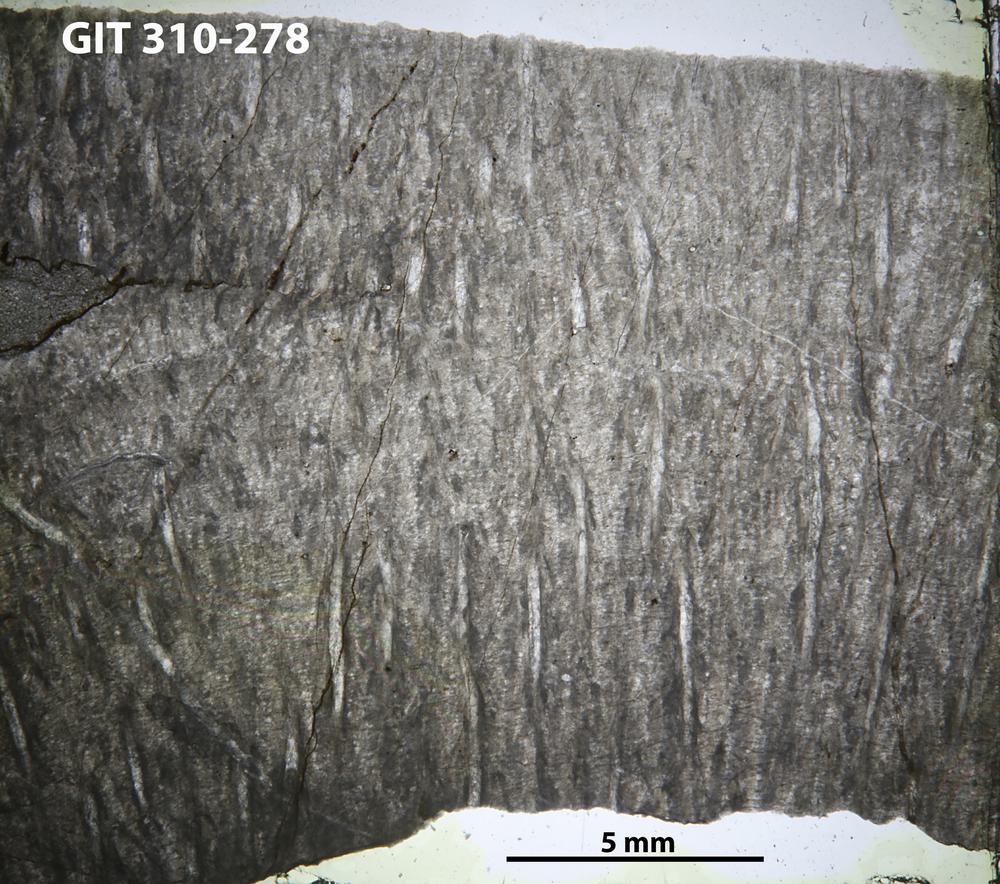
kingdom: Animalia
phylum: Porifera
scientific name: Porifera
